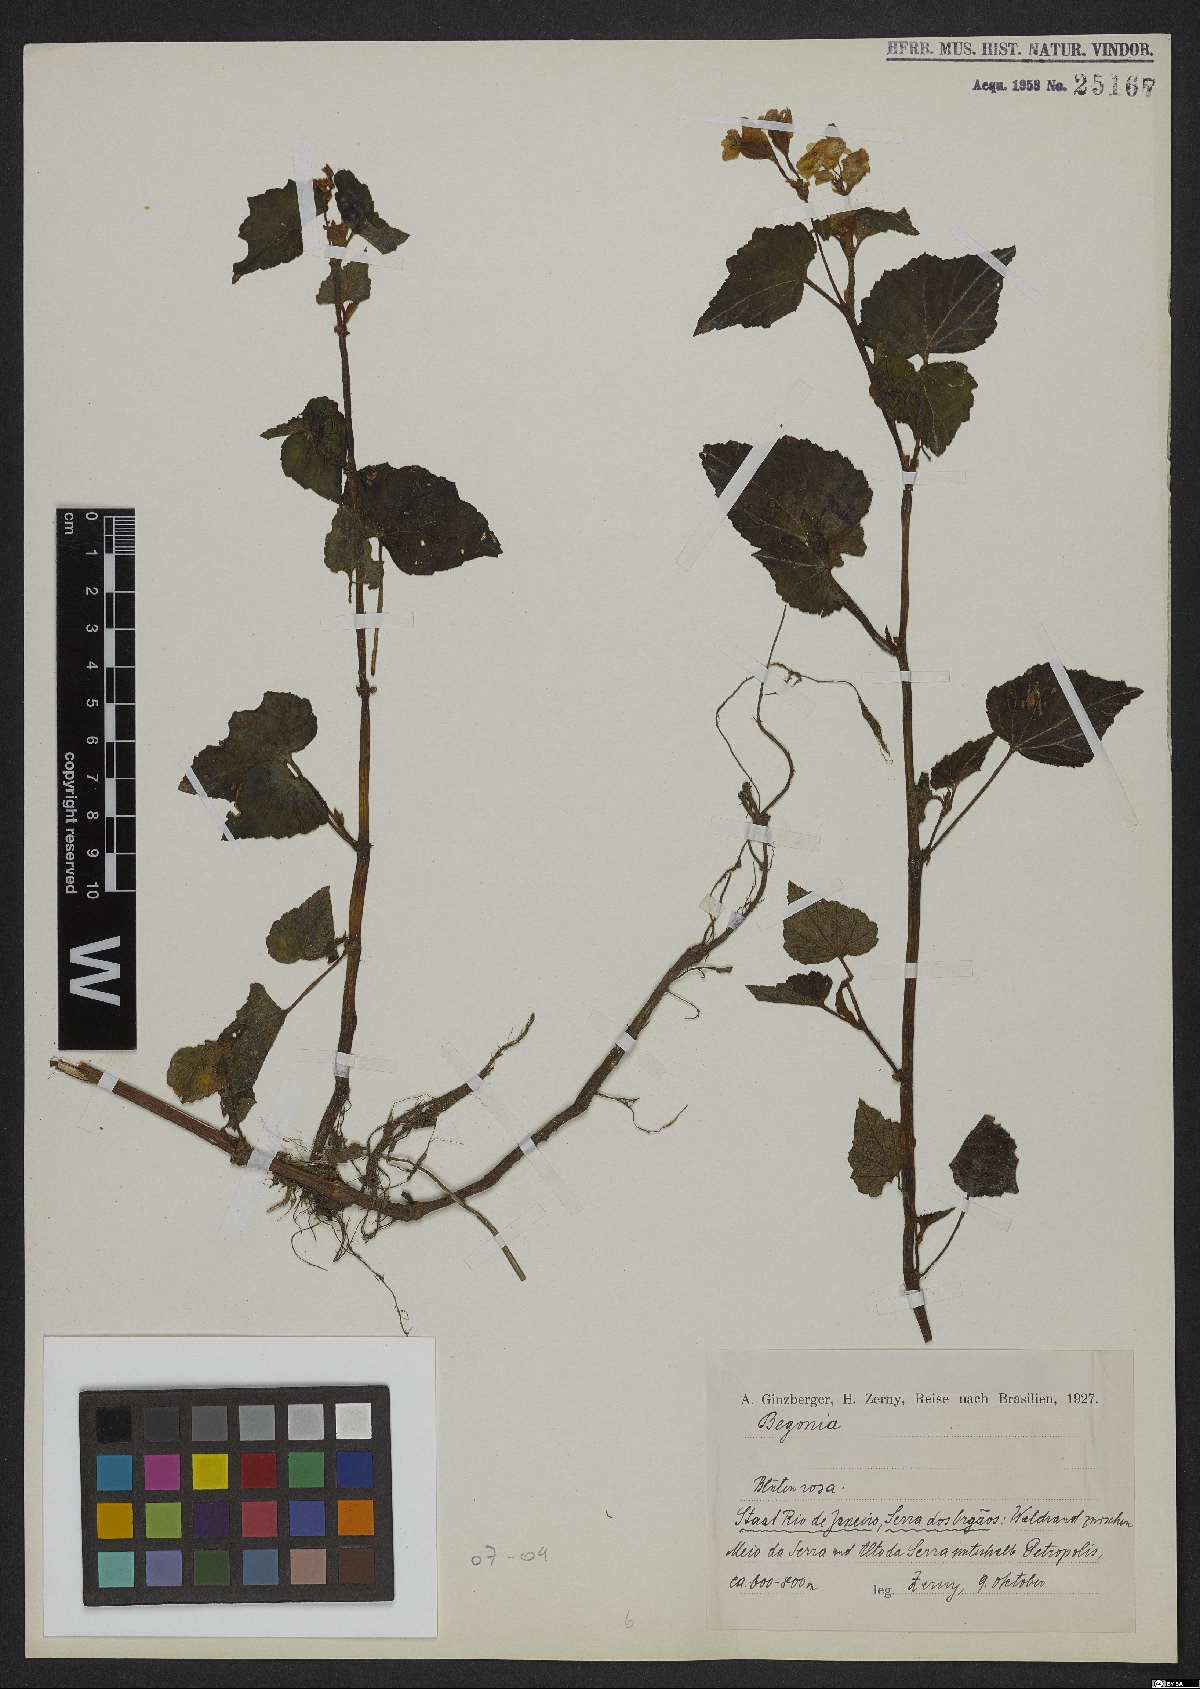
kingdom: Plantae
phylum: Tracheophyta
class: Magnoliopsida
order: Cucurbitales
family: Begoniaceae
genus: Begonia
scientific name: Begonia
